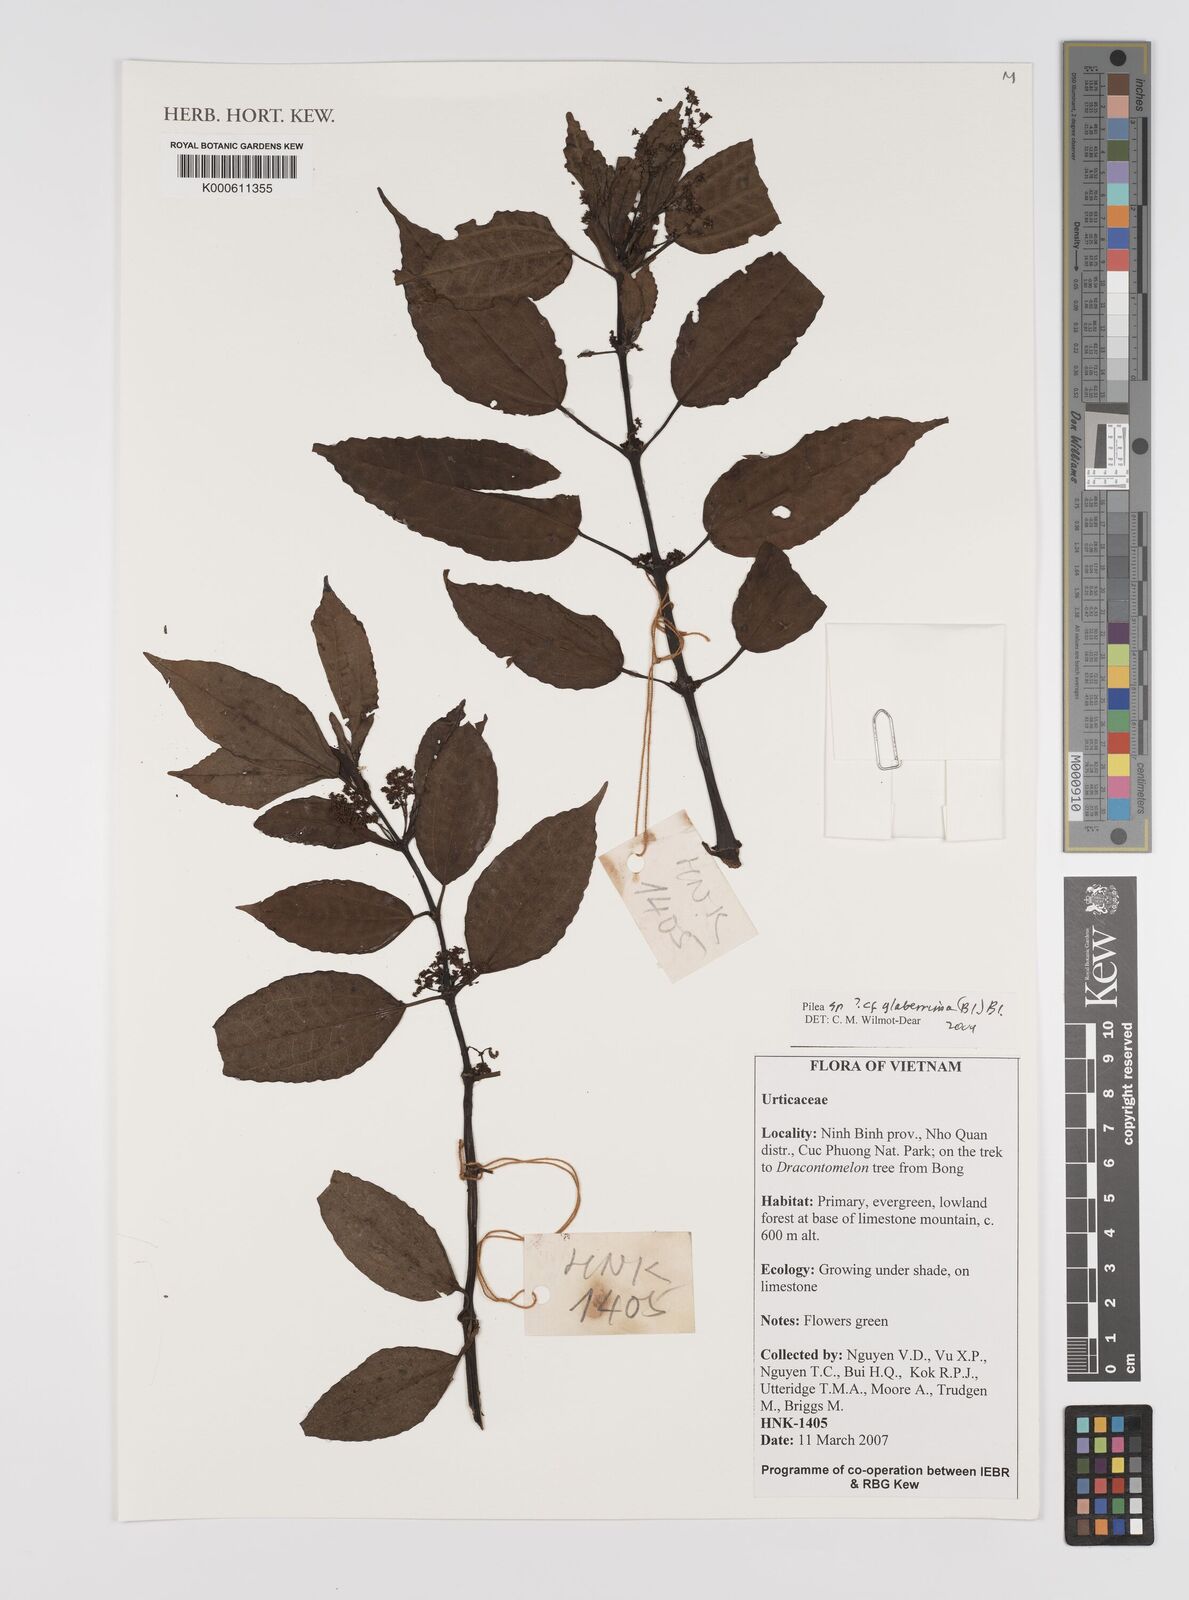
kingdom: Plantae
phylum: Tracheophyta
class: Magnoliopsida
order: Rosales
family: Urticaceae
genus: Pilea
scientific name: Pilea glaberrima
